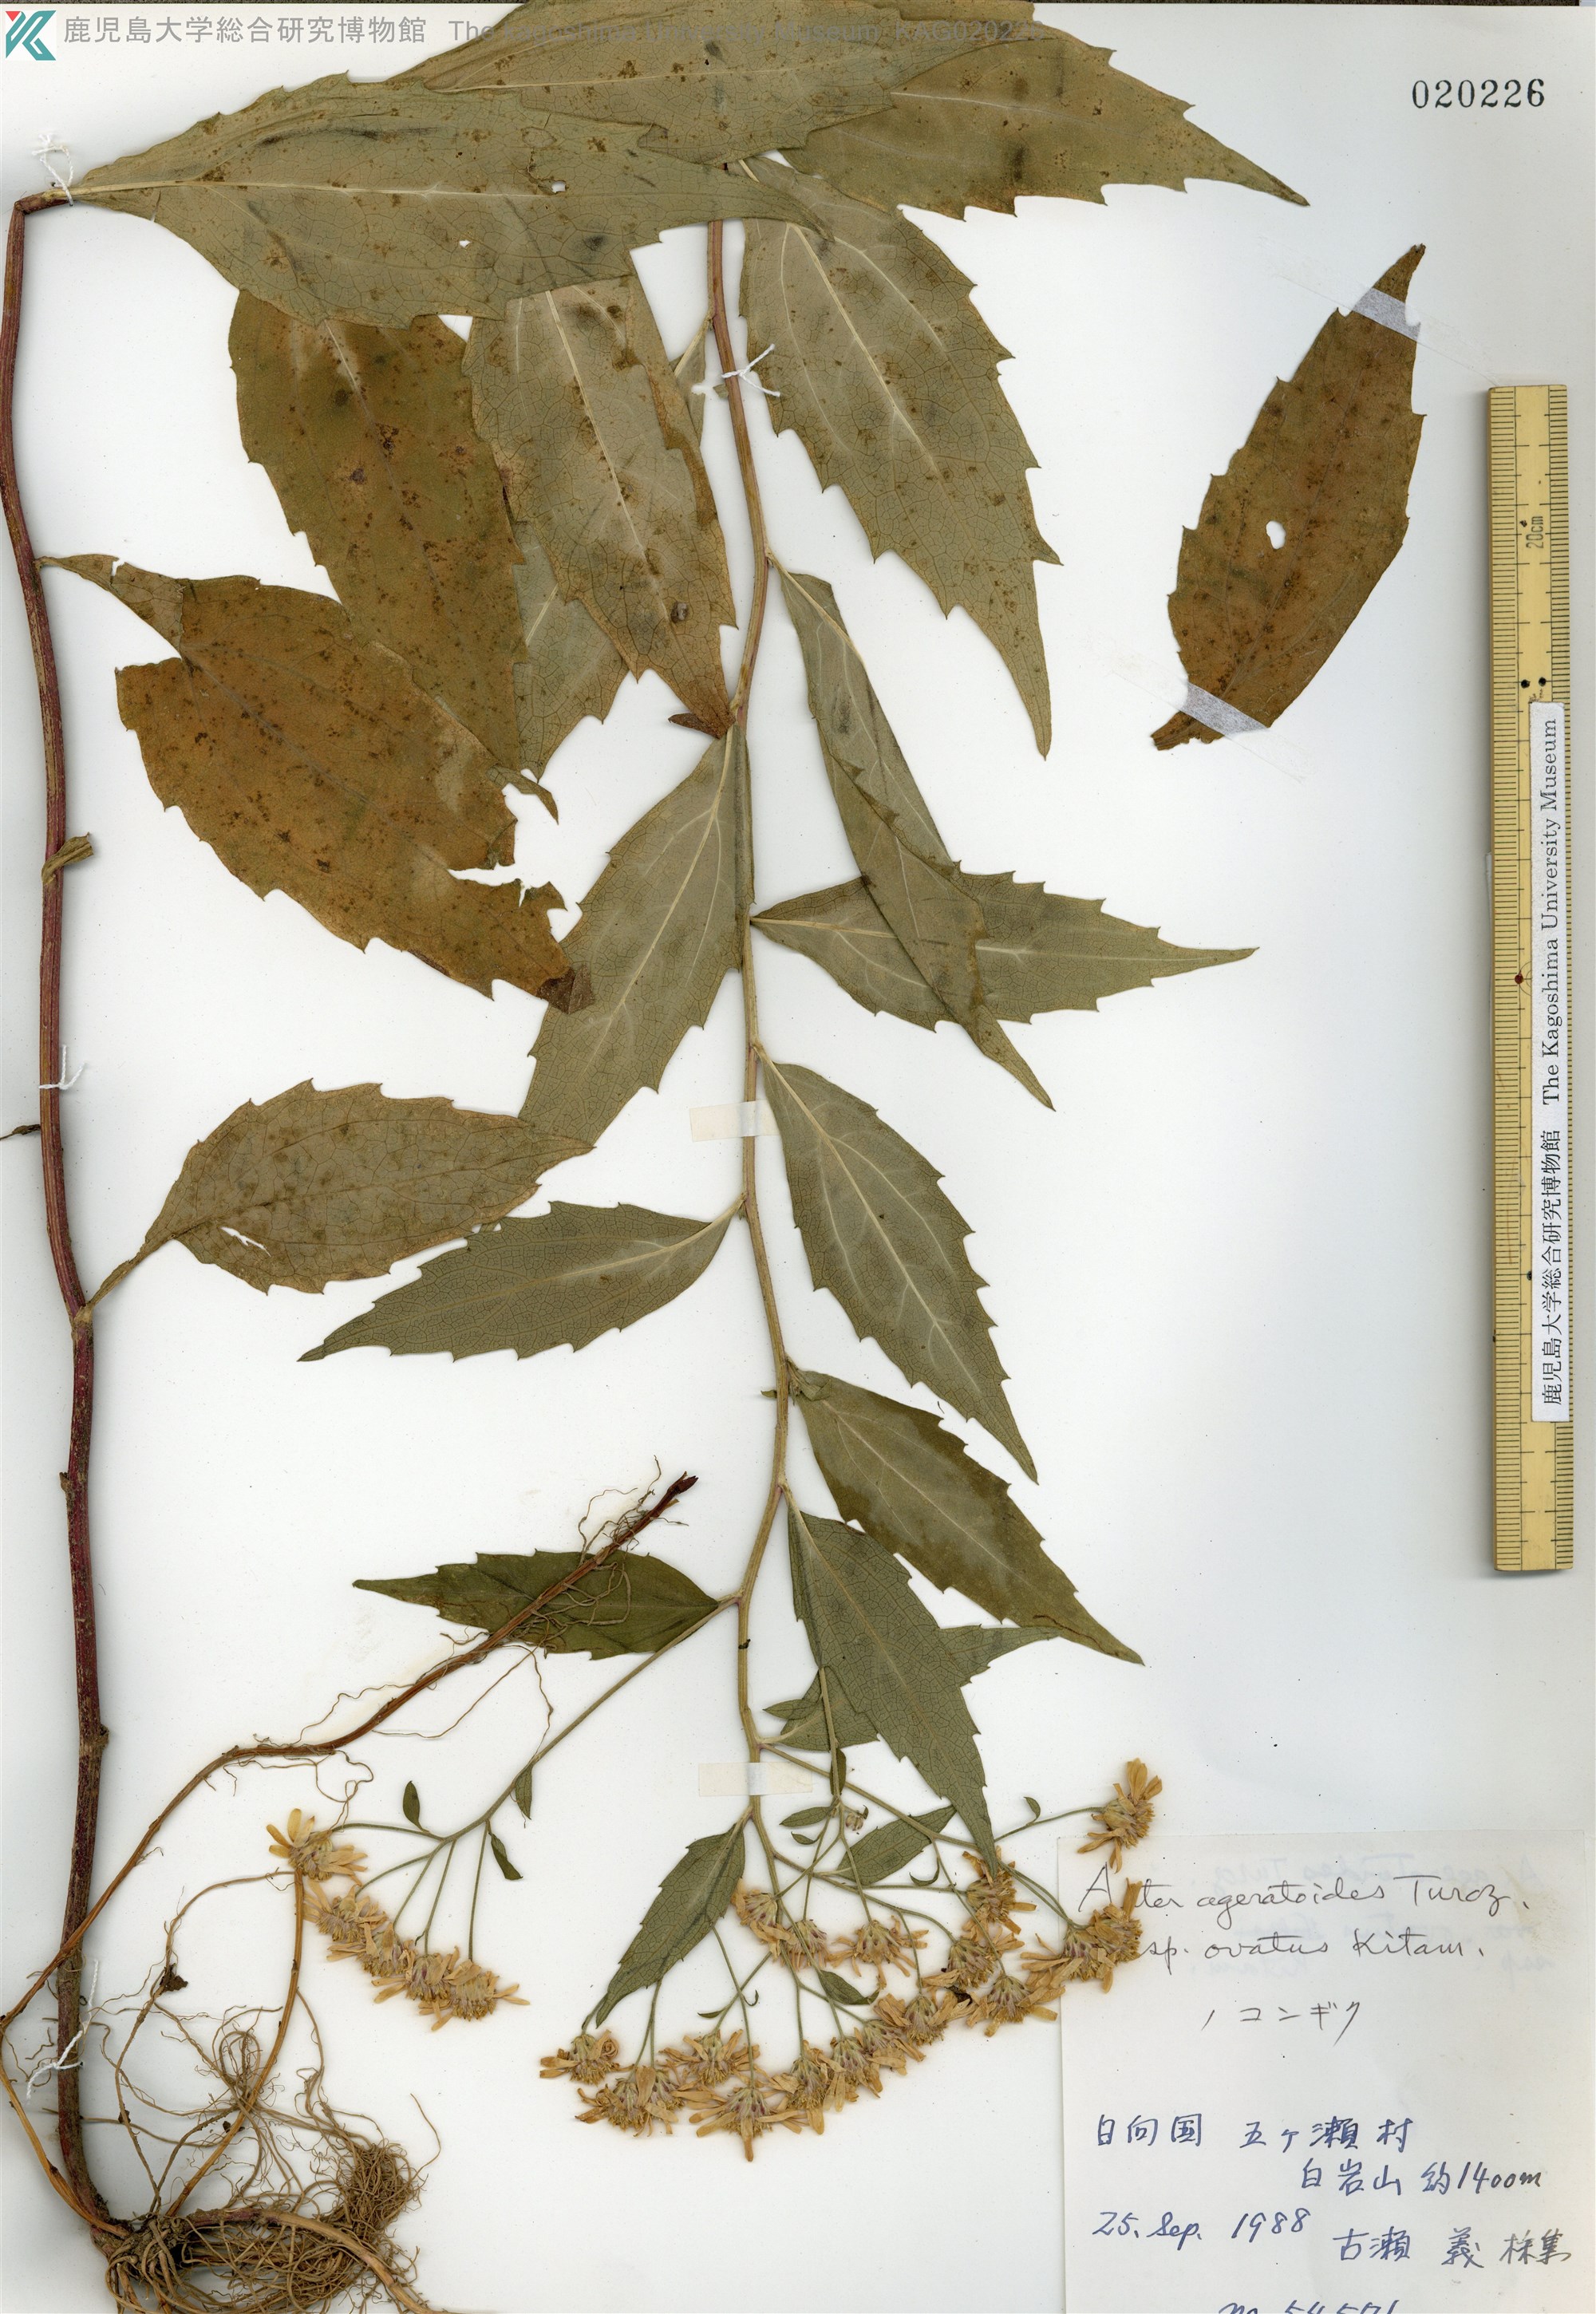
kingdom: Plantae
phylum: Tracheophyta
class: Magnoliopsida
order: Asterales
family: Asteraceae
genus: Aster
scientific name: Aster microcephalus
